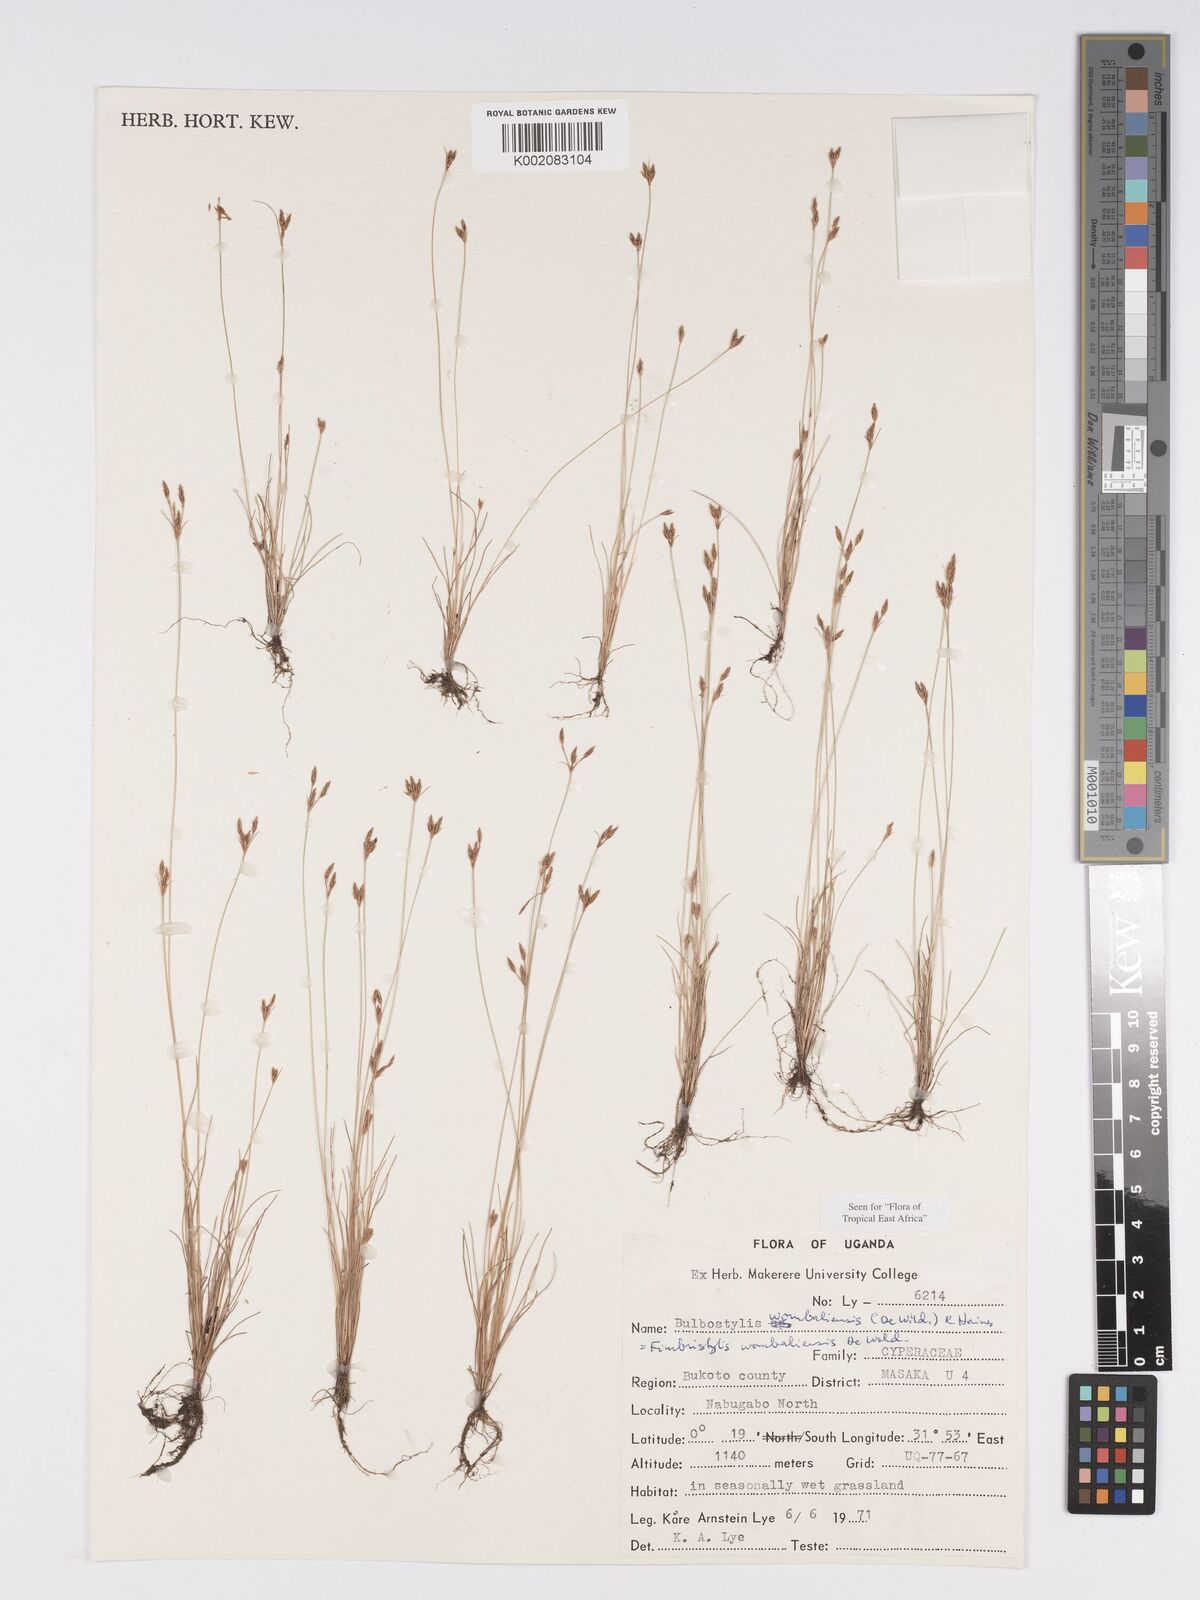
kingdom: Plantae
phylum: Tracheophyta
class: Liliopsida
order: Poales
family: Cyperaceae
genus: Bulbostylis
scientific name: Bulbostylis
